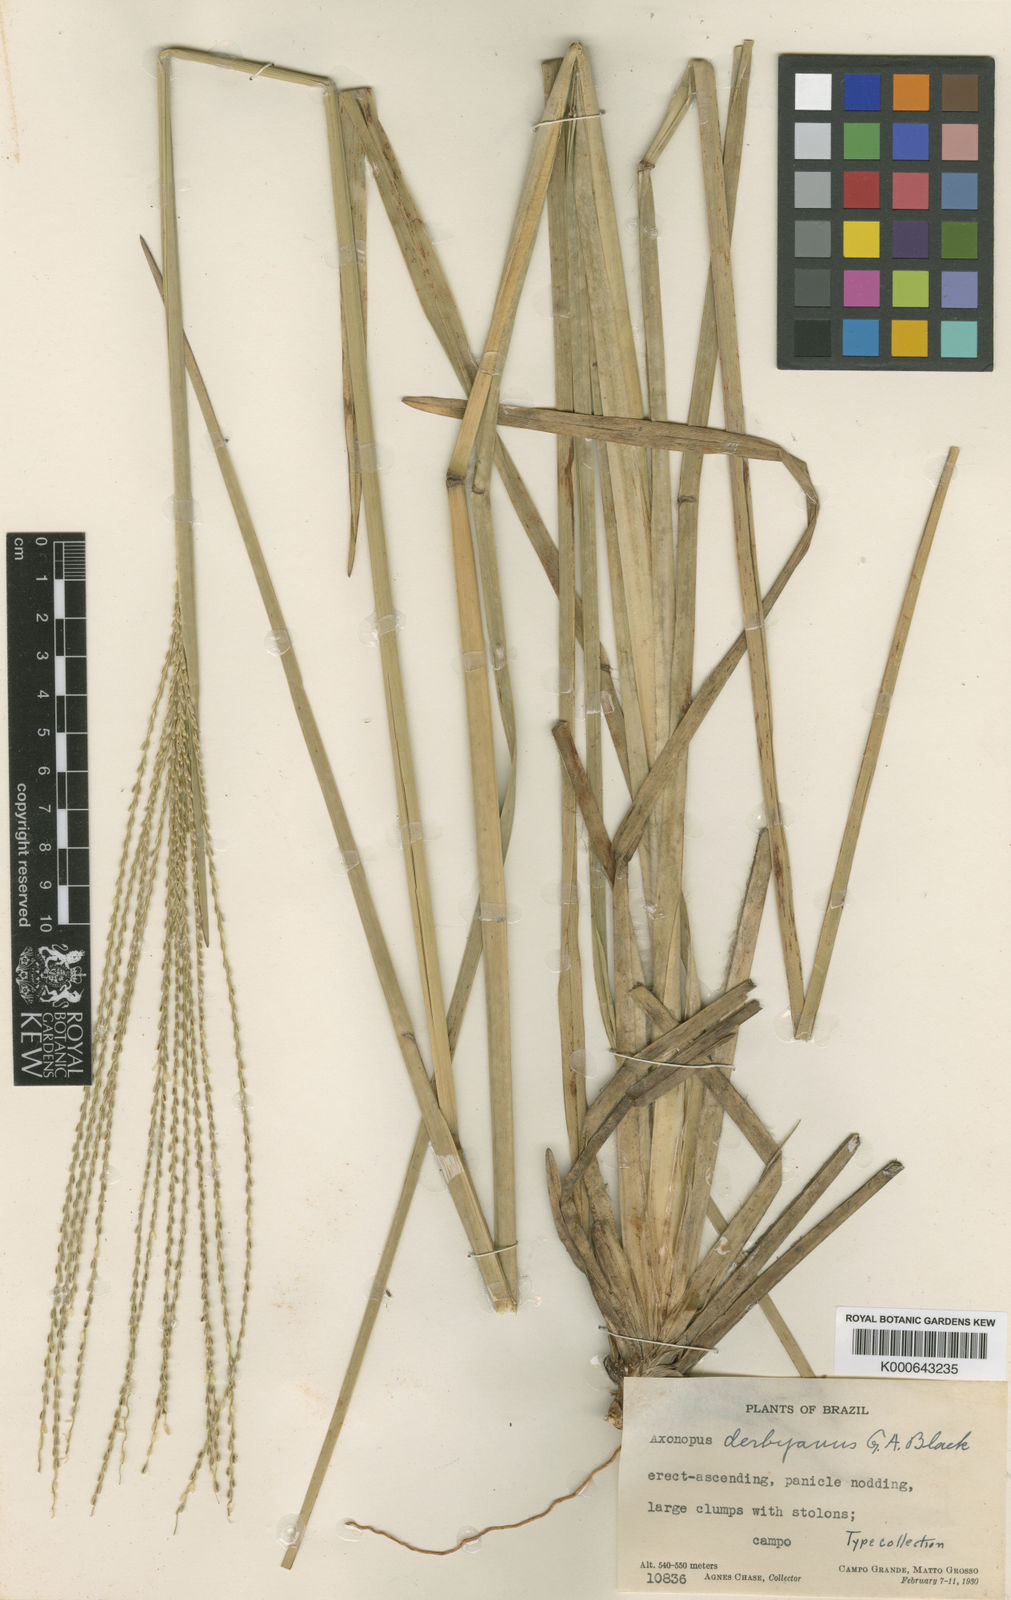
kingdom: Plantae
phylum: Tracheophyta
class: Liliopsida
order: Poales
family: Poaceae
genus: Axonopus
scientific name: Axonopus pressus
